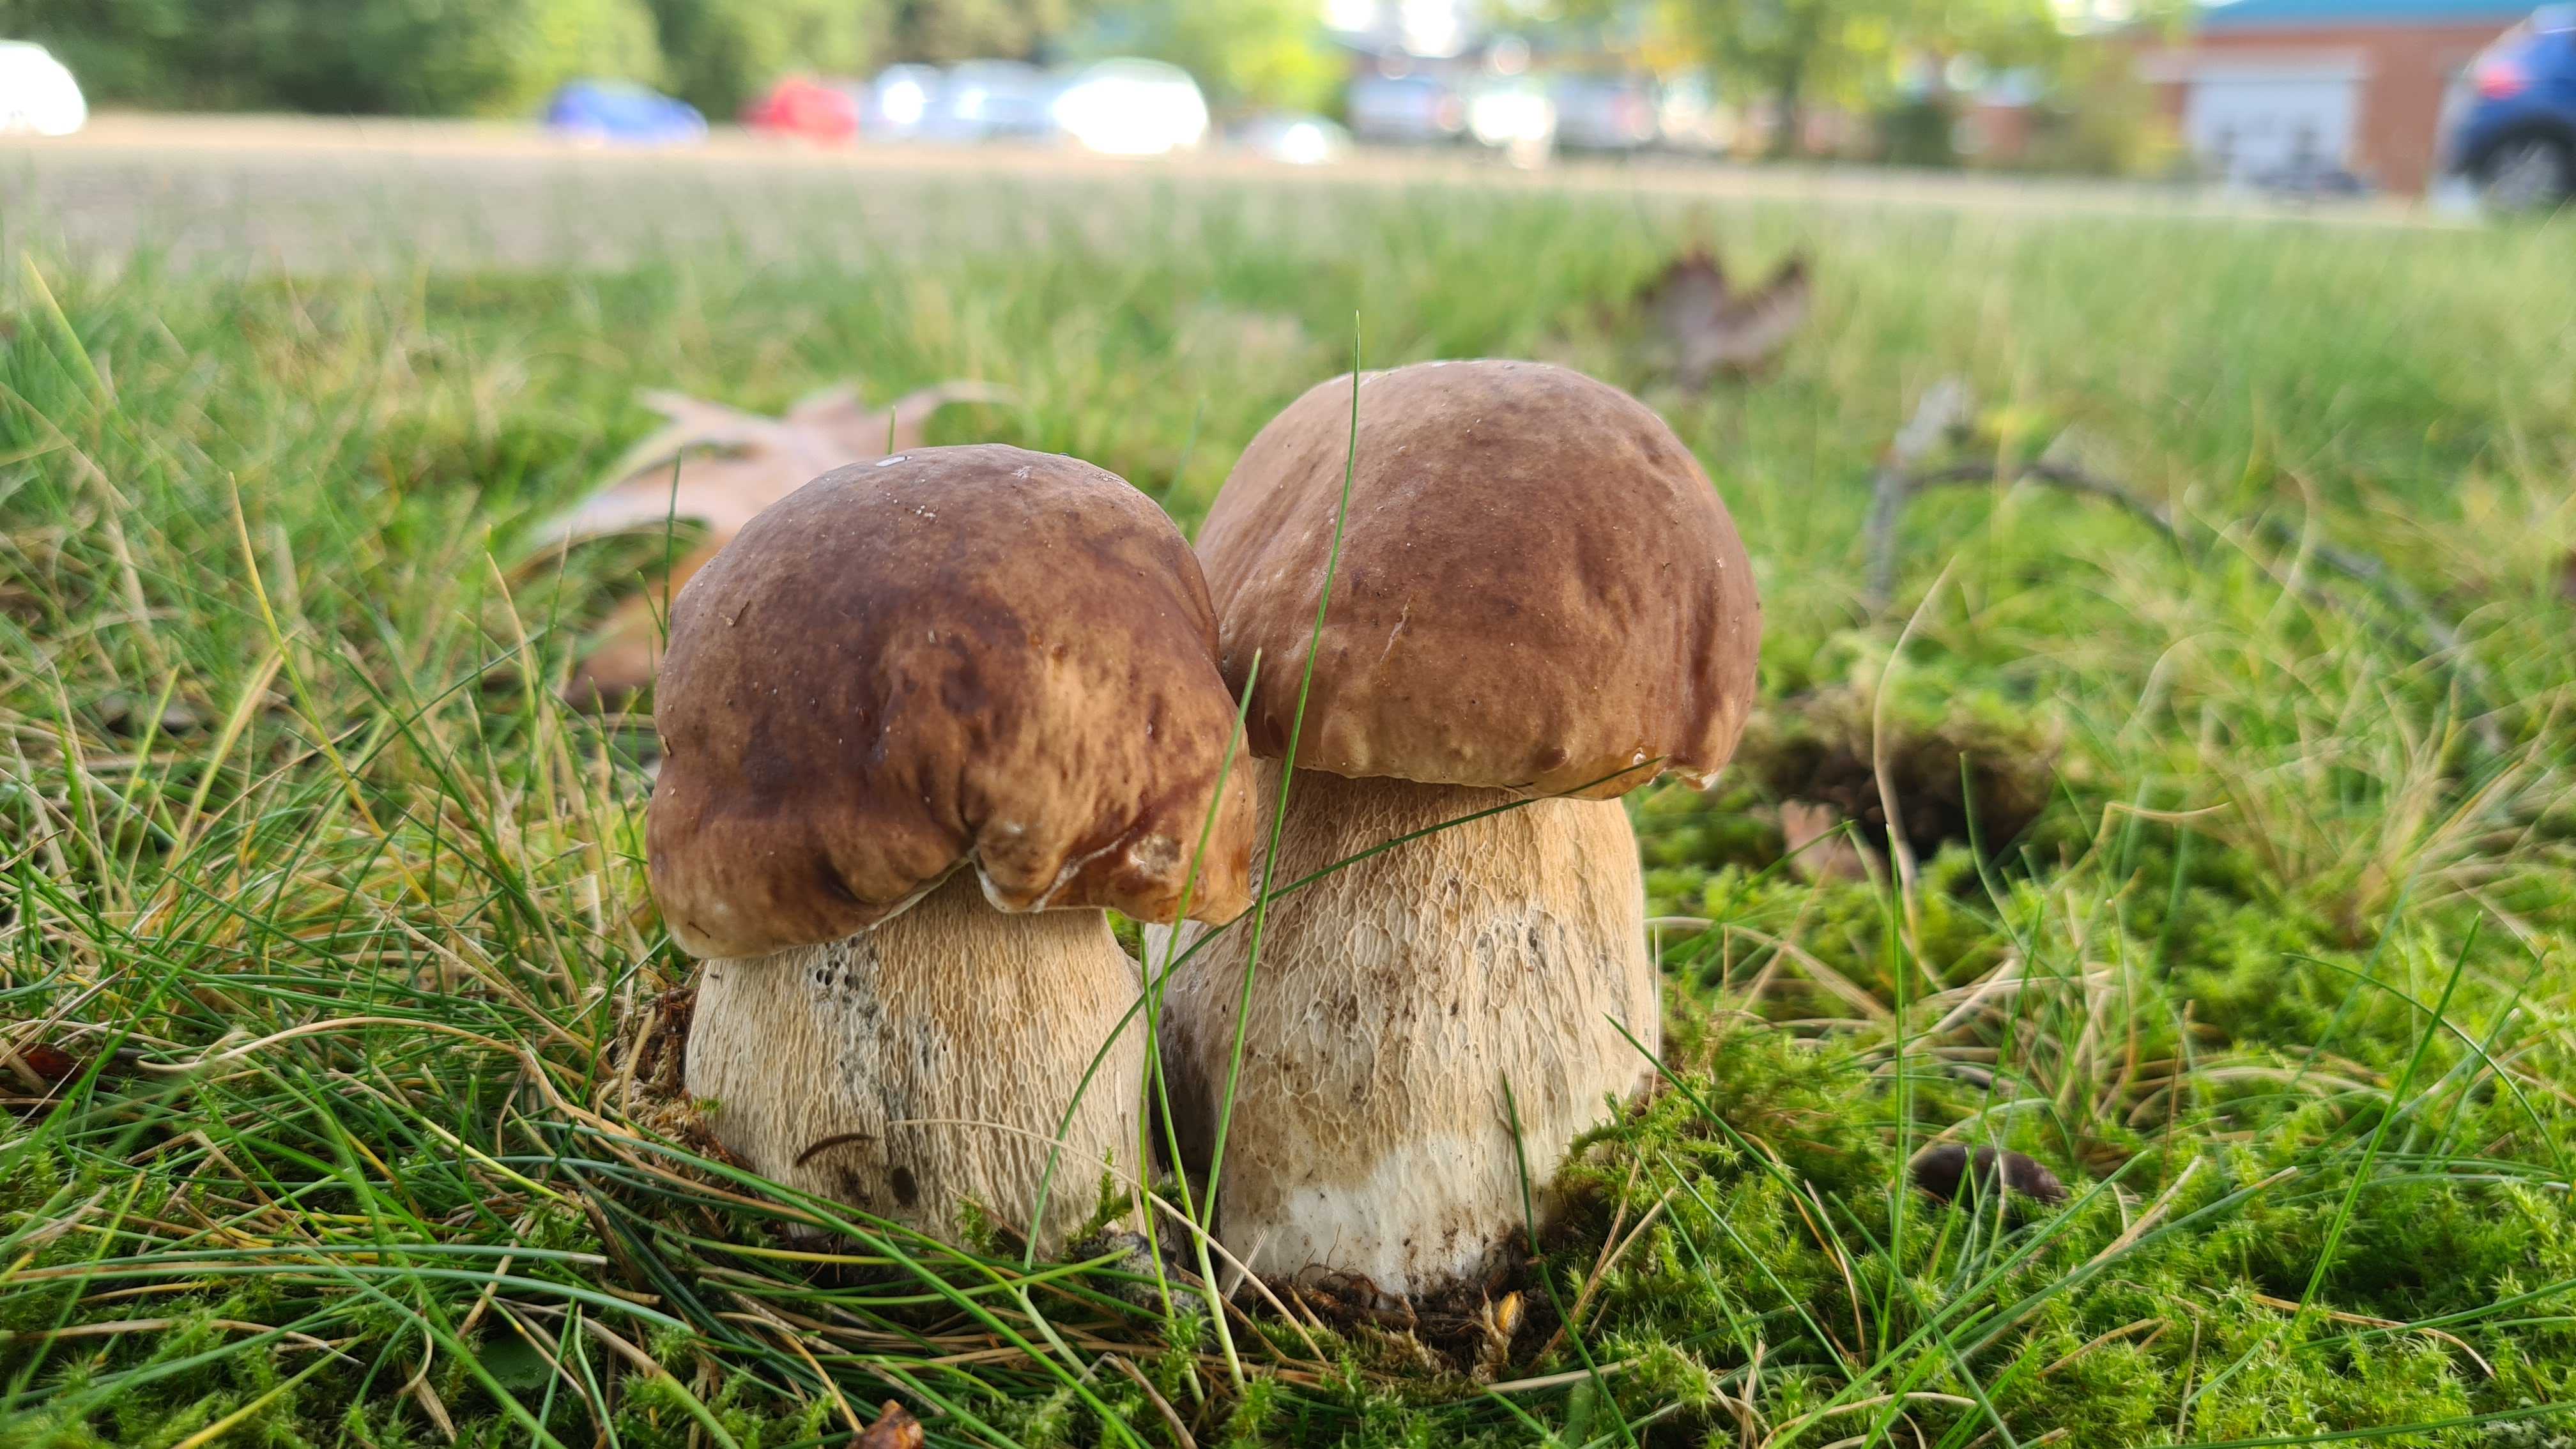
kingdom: Fungi
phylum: Basidiomycota
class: Agaricomycetes
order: Boletales
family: Boletaceae
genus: Boletus
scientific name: Boletus edulis
